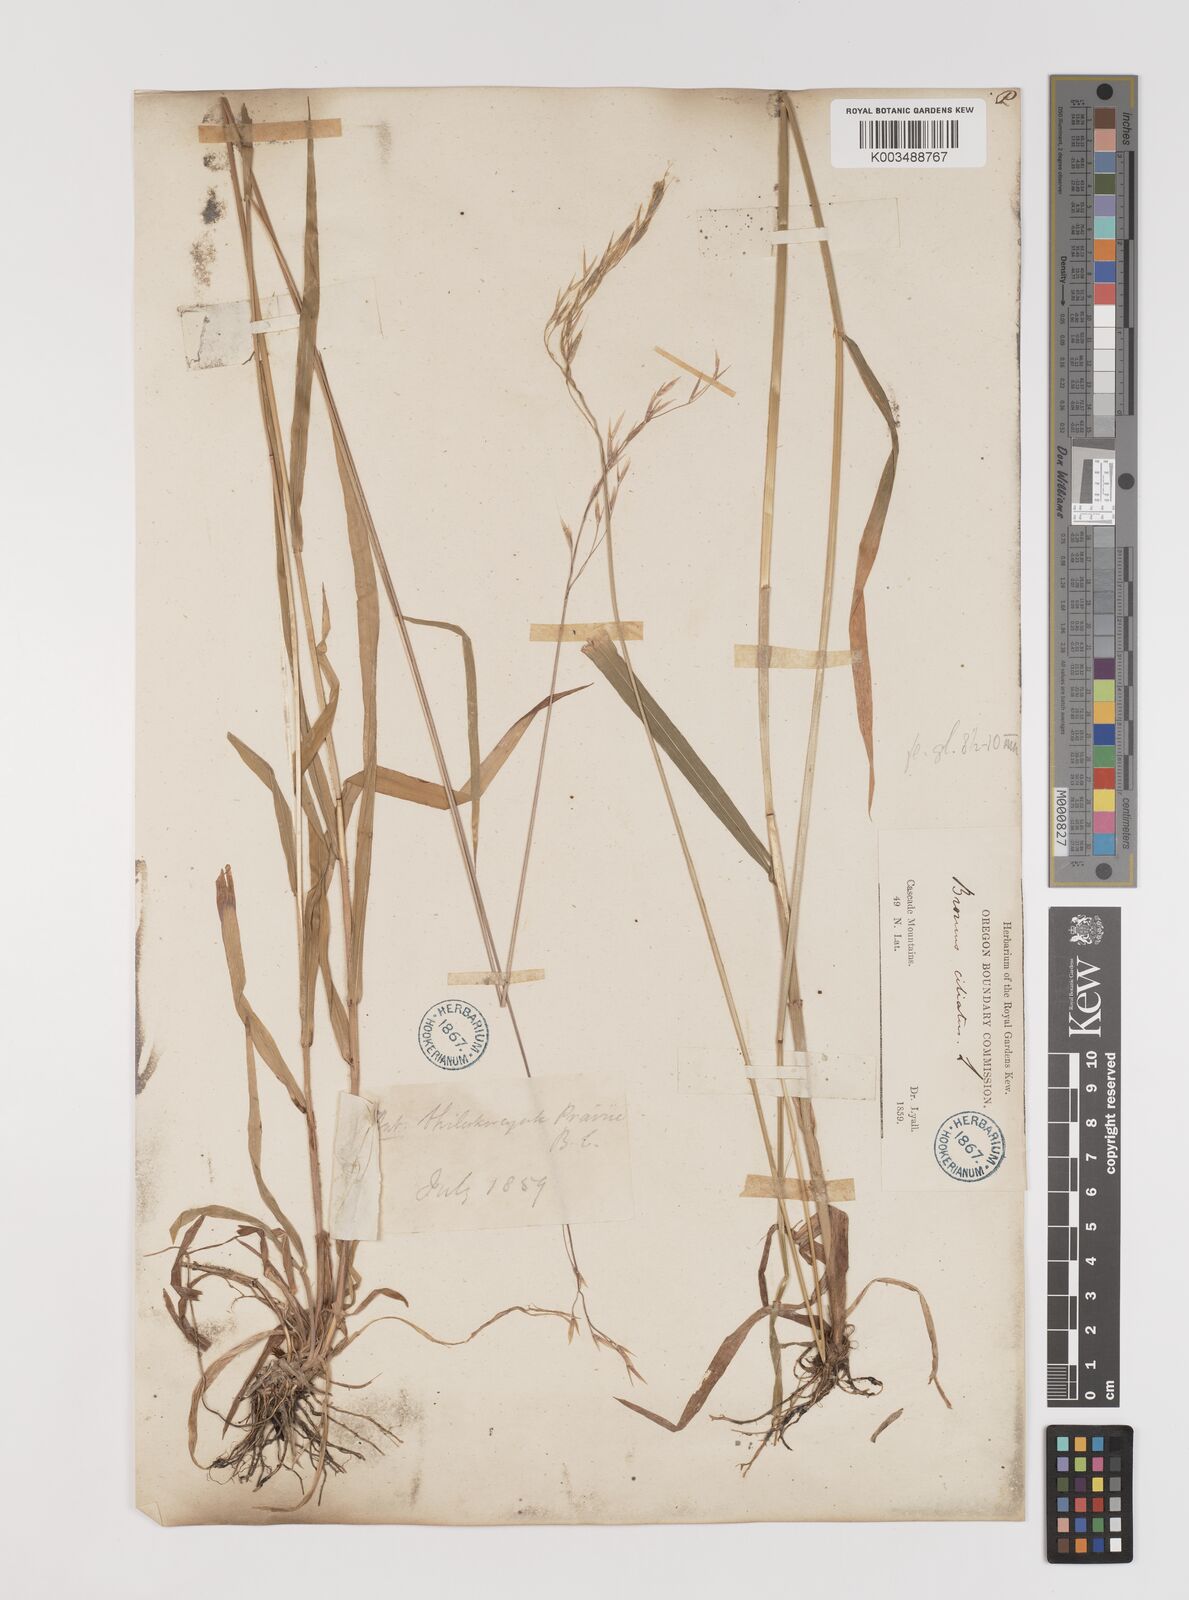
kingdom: Plantae
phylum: Tracheophyta
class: Liliopsida
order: Poales
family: Poaceae
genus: Bromus
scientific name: Bromus
